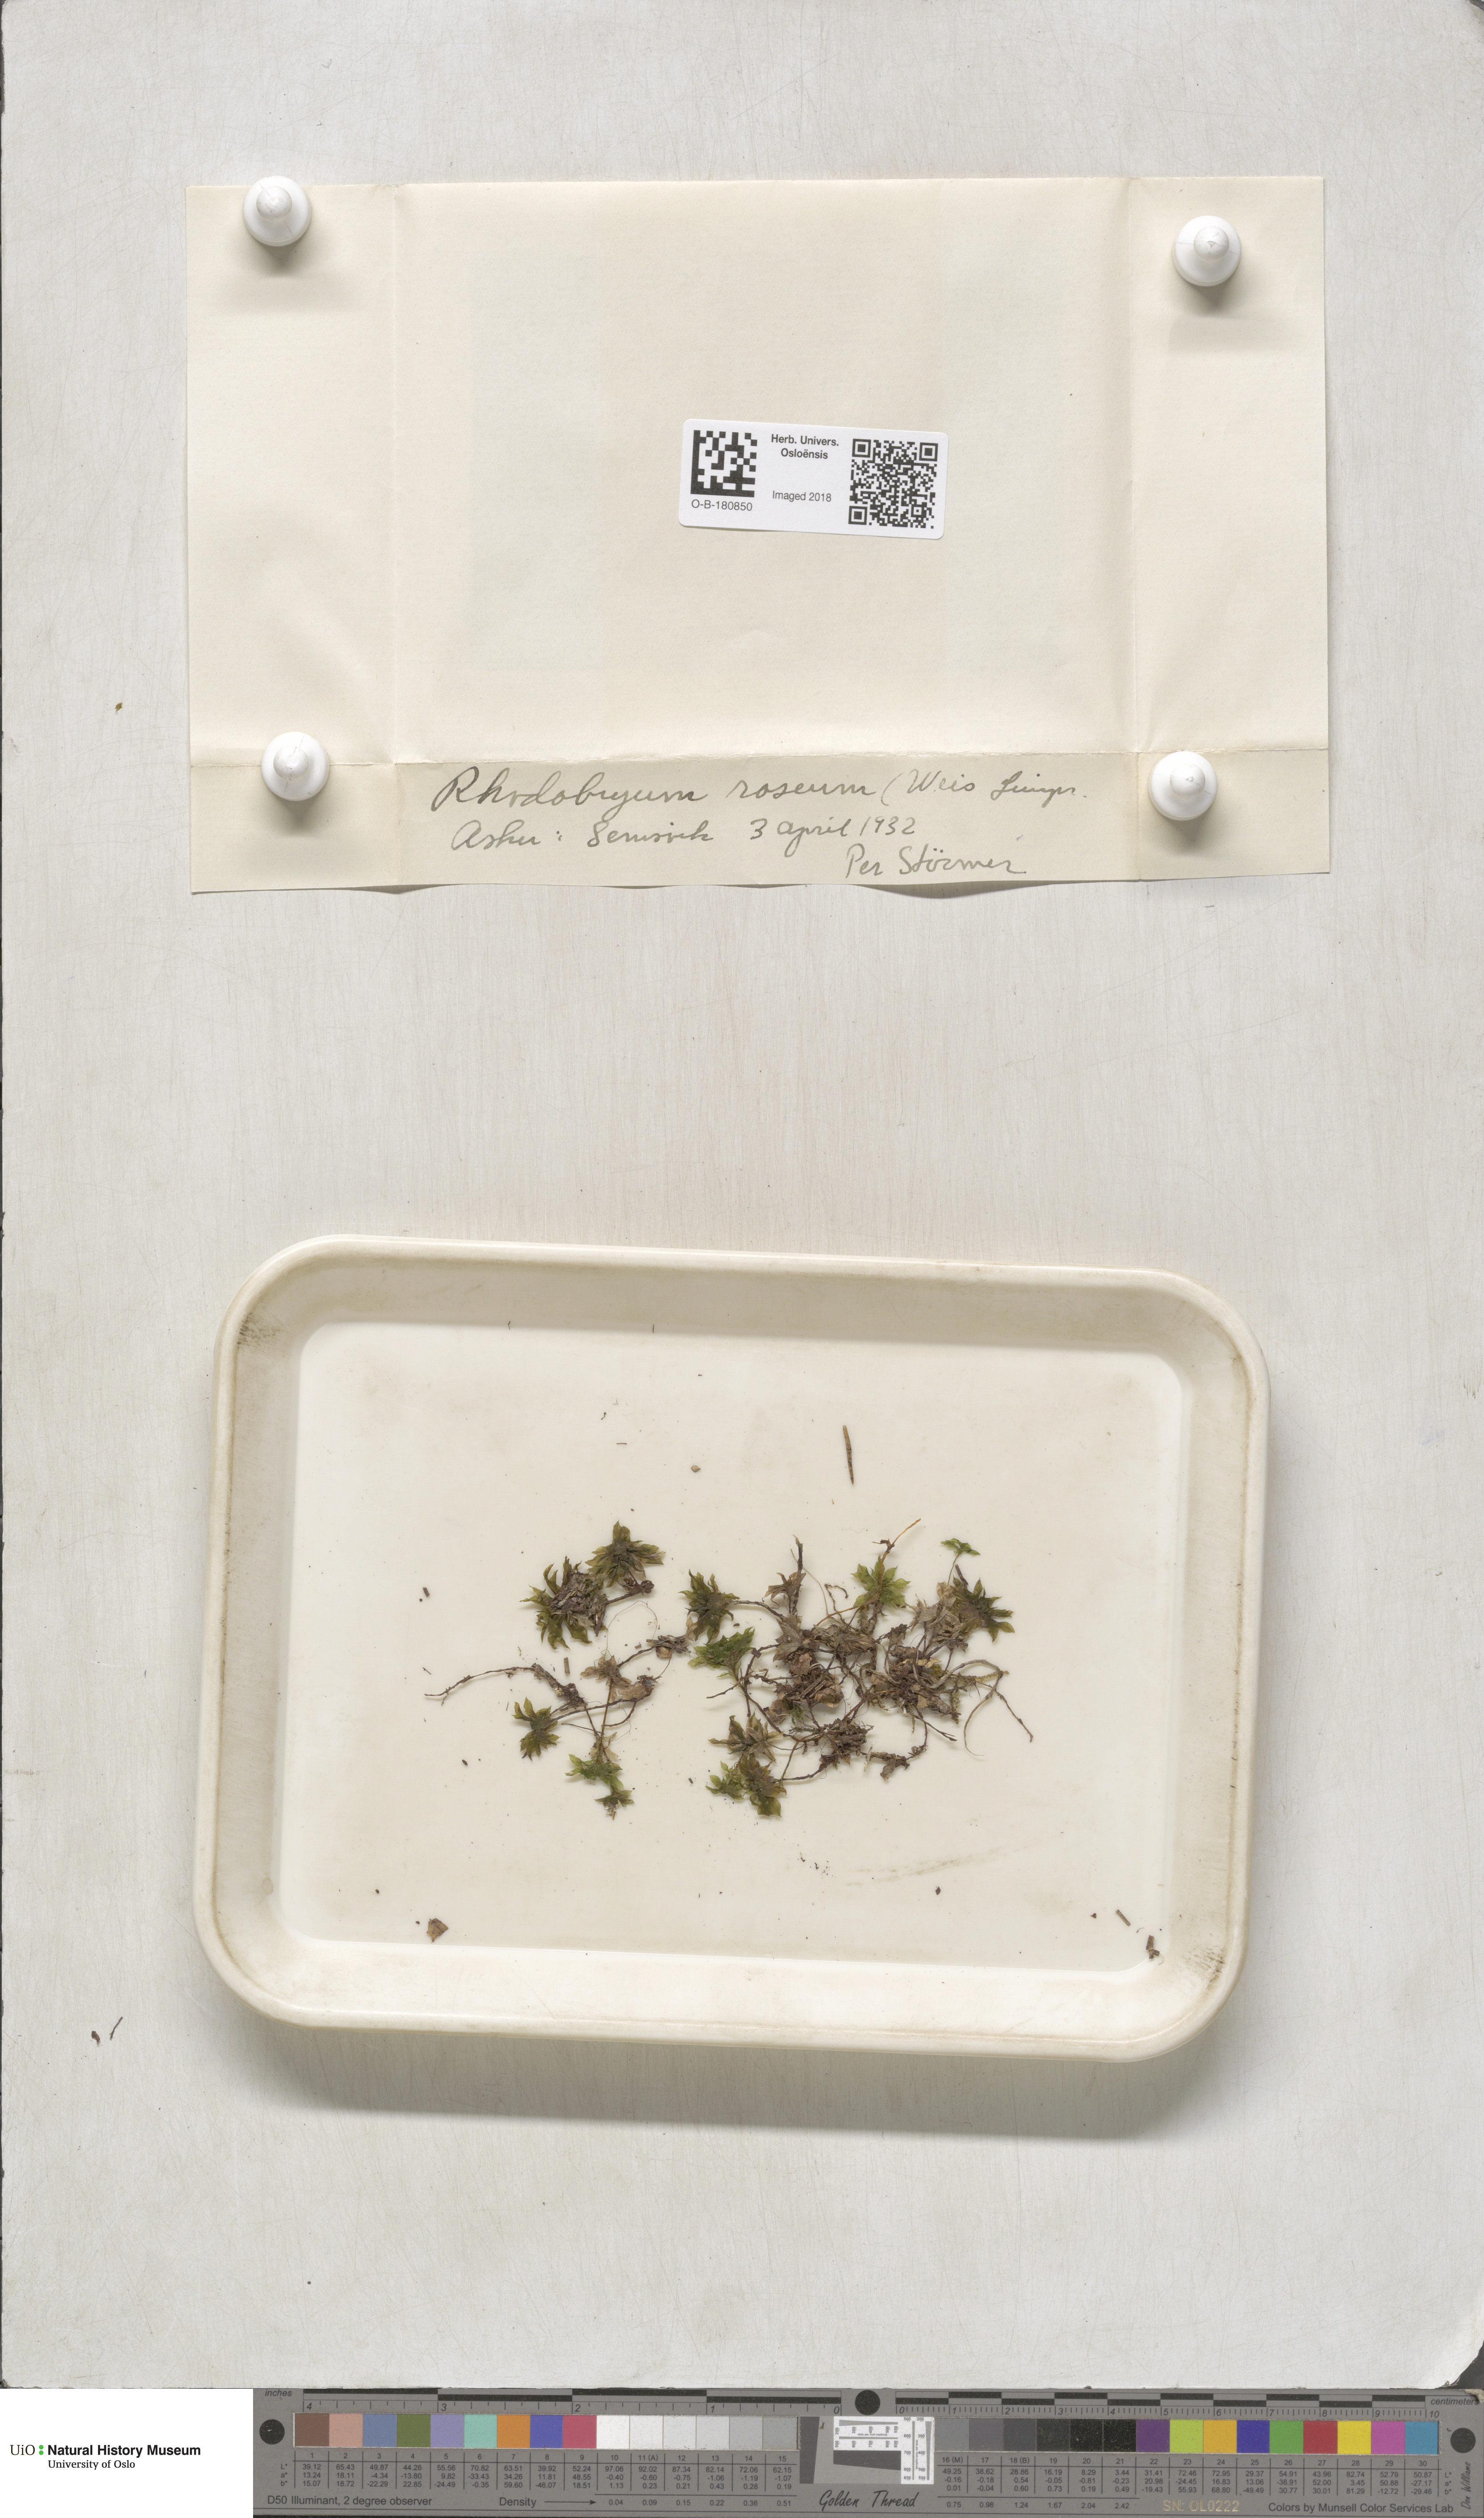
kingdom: Plantae
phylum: Bryophyta
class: Bryopsida
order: Bryales
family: Bryaceae
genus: Rhodobryum
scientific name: Rhodobryum roseum
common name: Rose-moss
